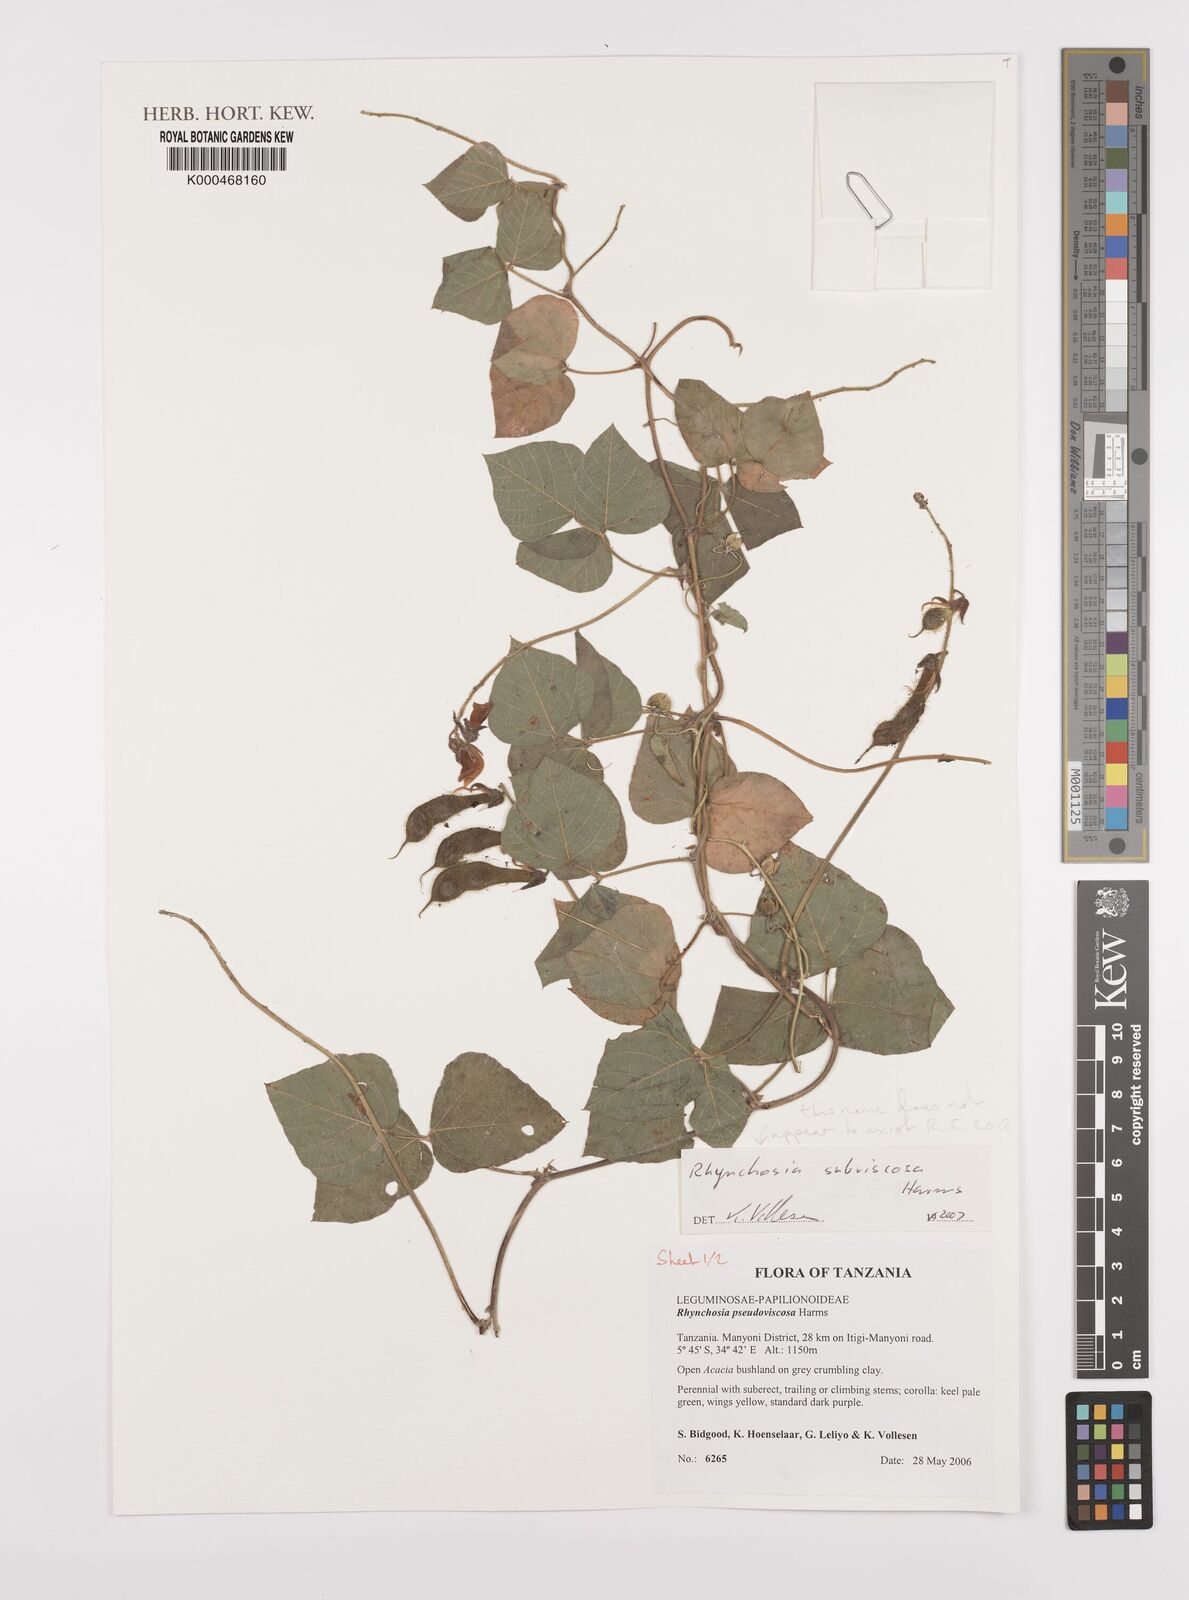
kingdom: Plantae
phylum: Tracheophyta
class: Magnoliopsida
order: Fabales
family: Fabaceae
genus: Rhynchosia
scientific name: Rhynchosia pseudoviscosa
